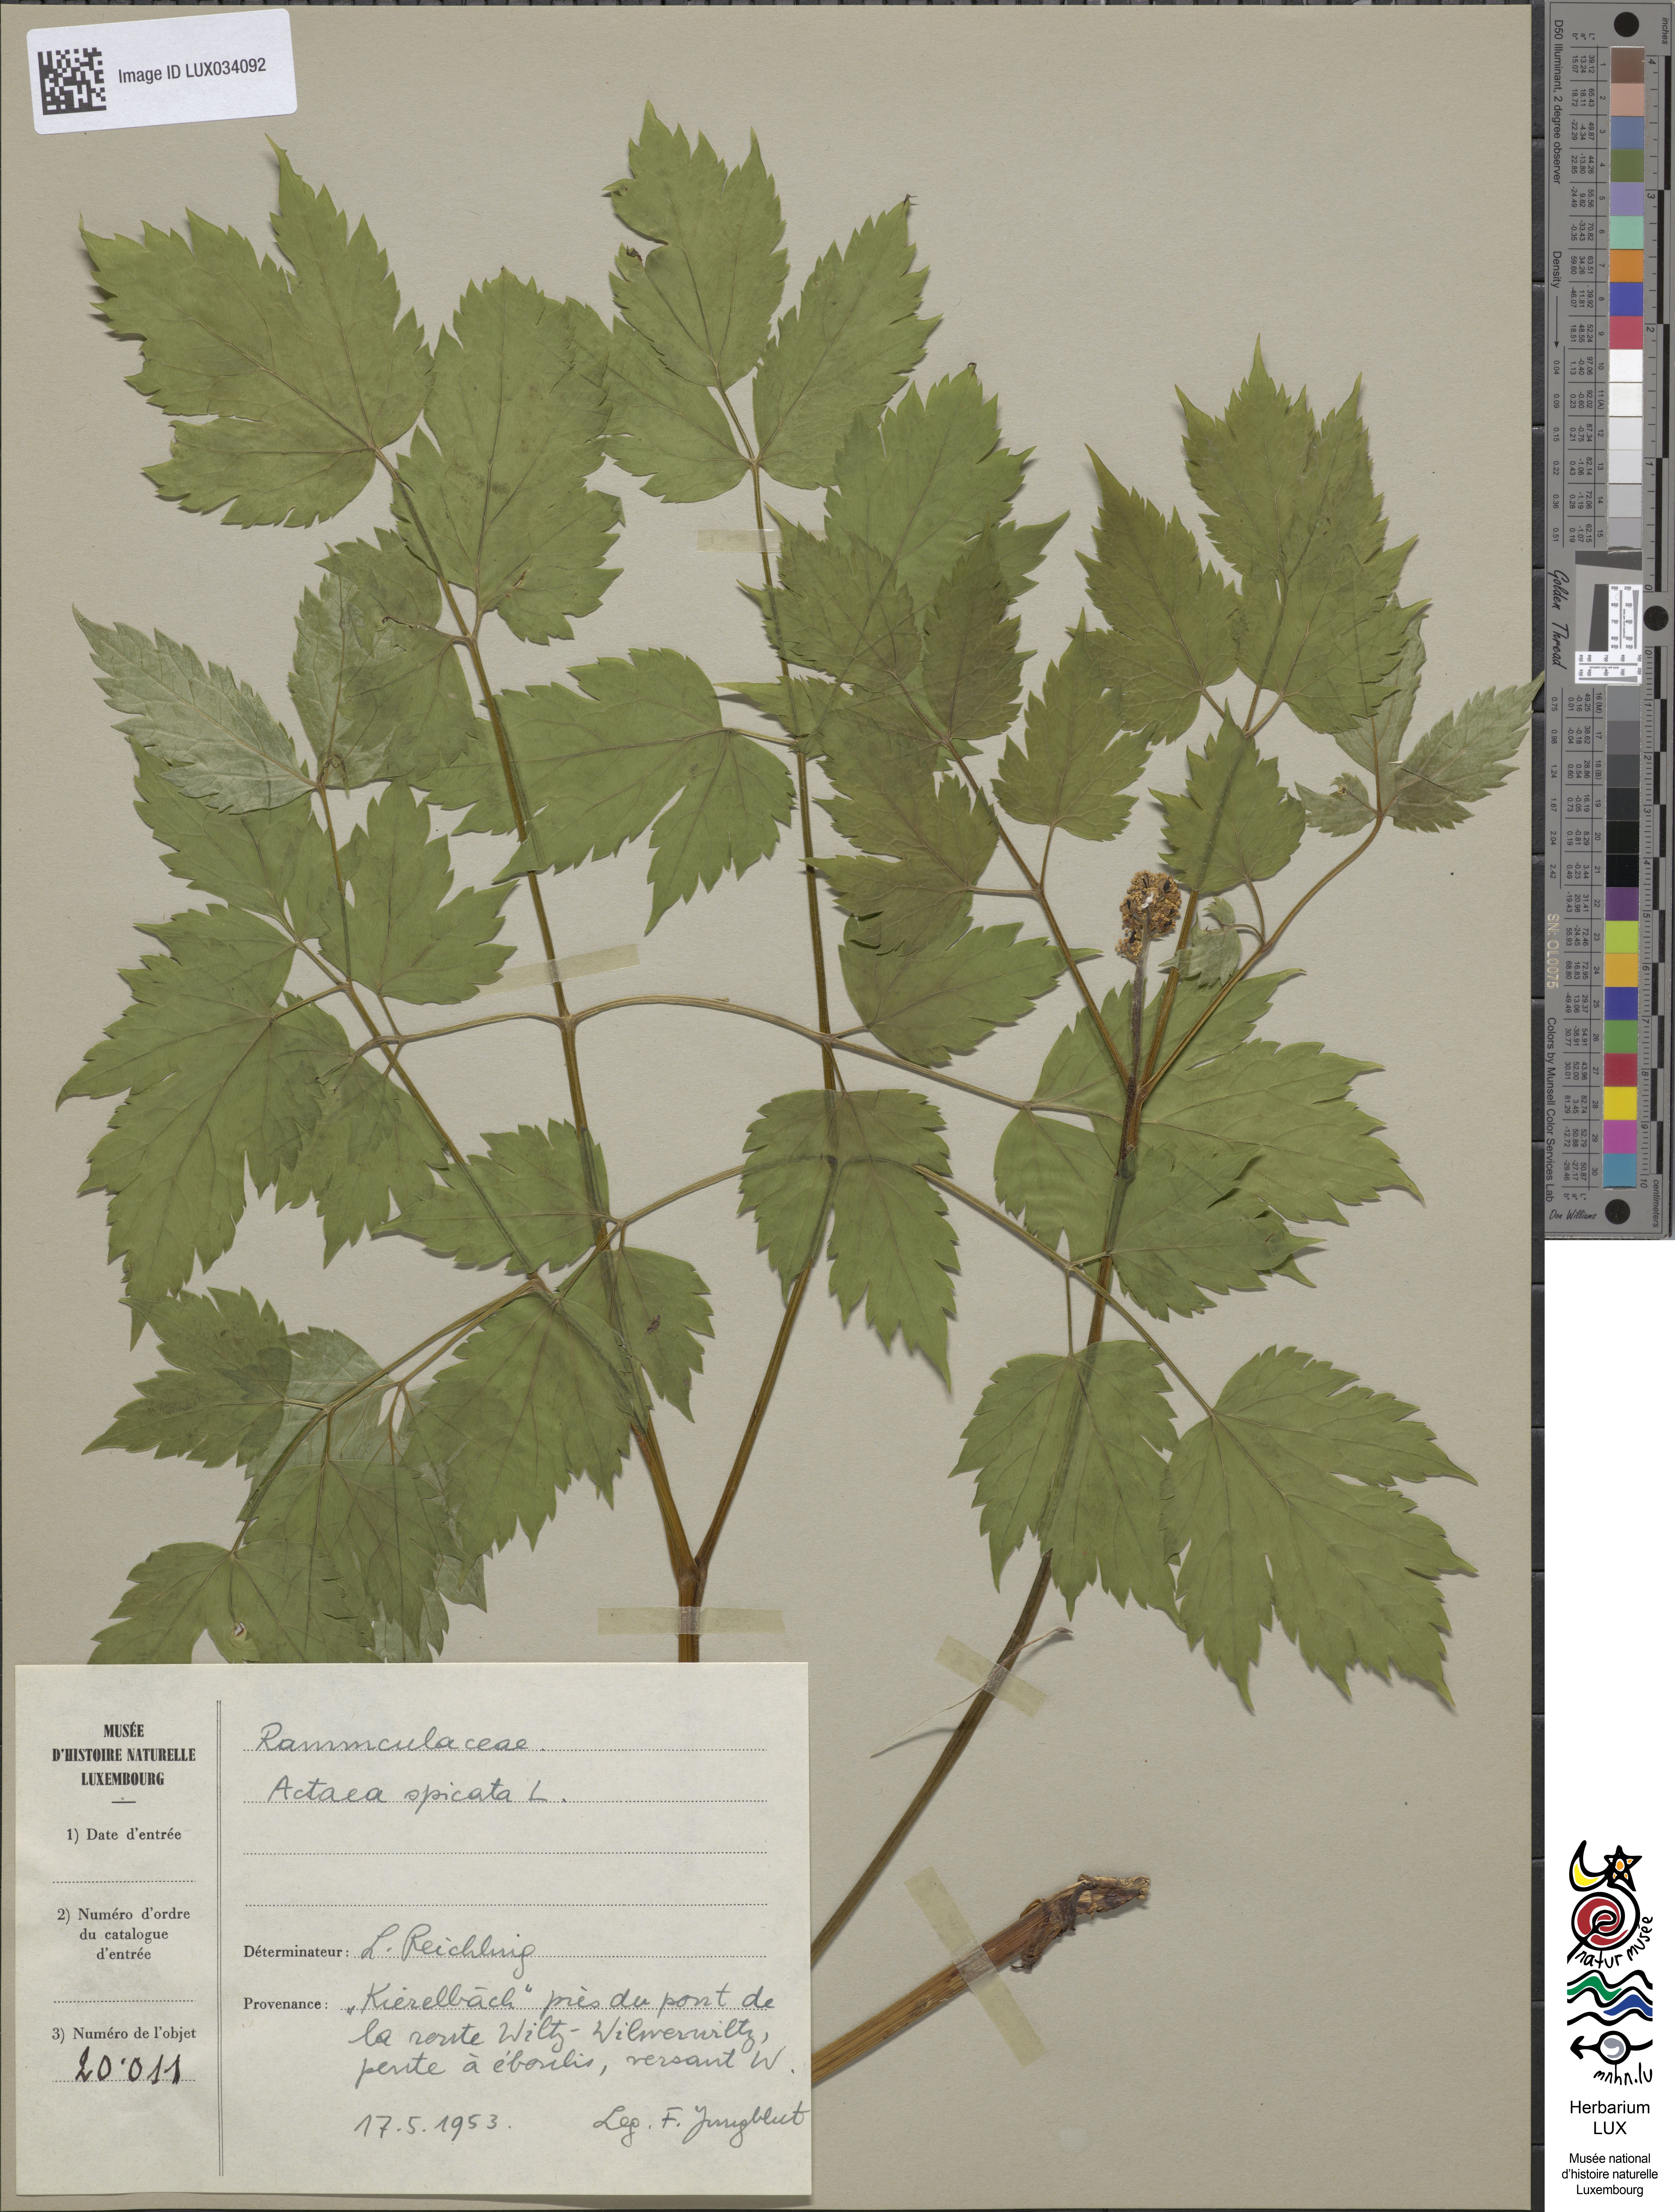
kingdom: Plantae
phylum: Tracheophyta
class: Magnoliopsida
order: Ranunculales
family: Ranunculaceae
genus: Actaea
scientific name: Actaea spicata
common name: Baneberry
